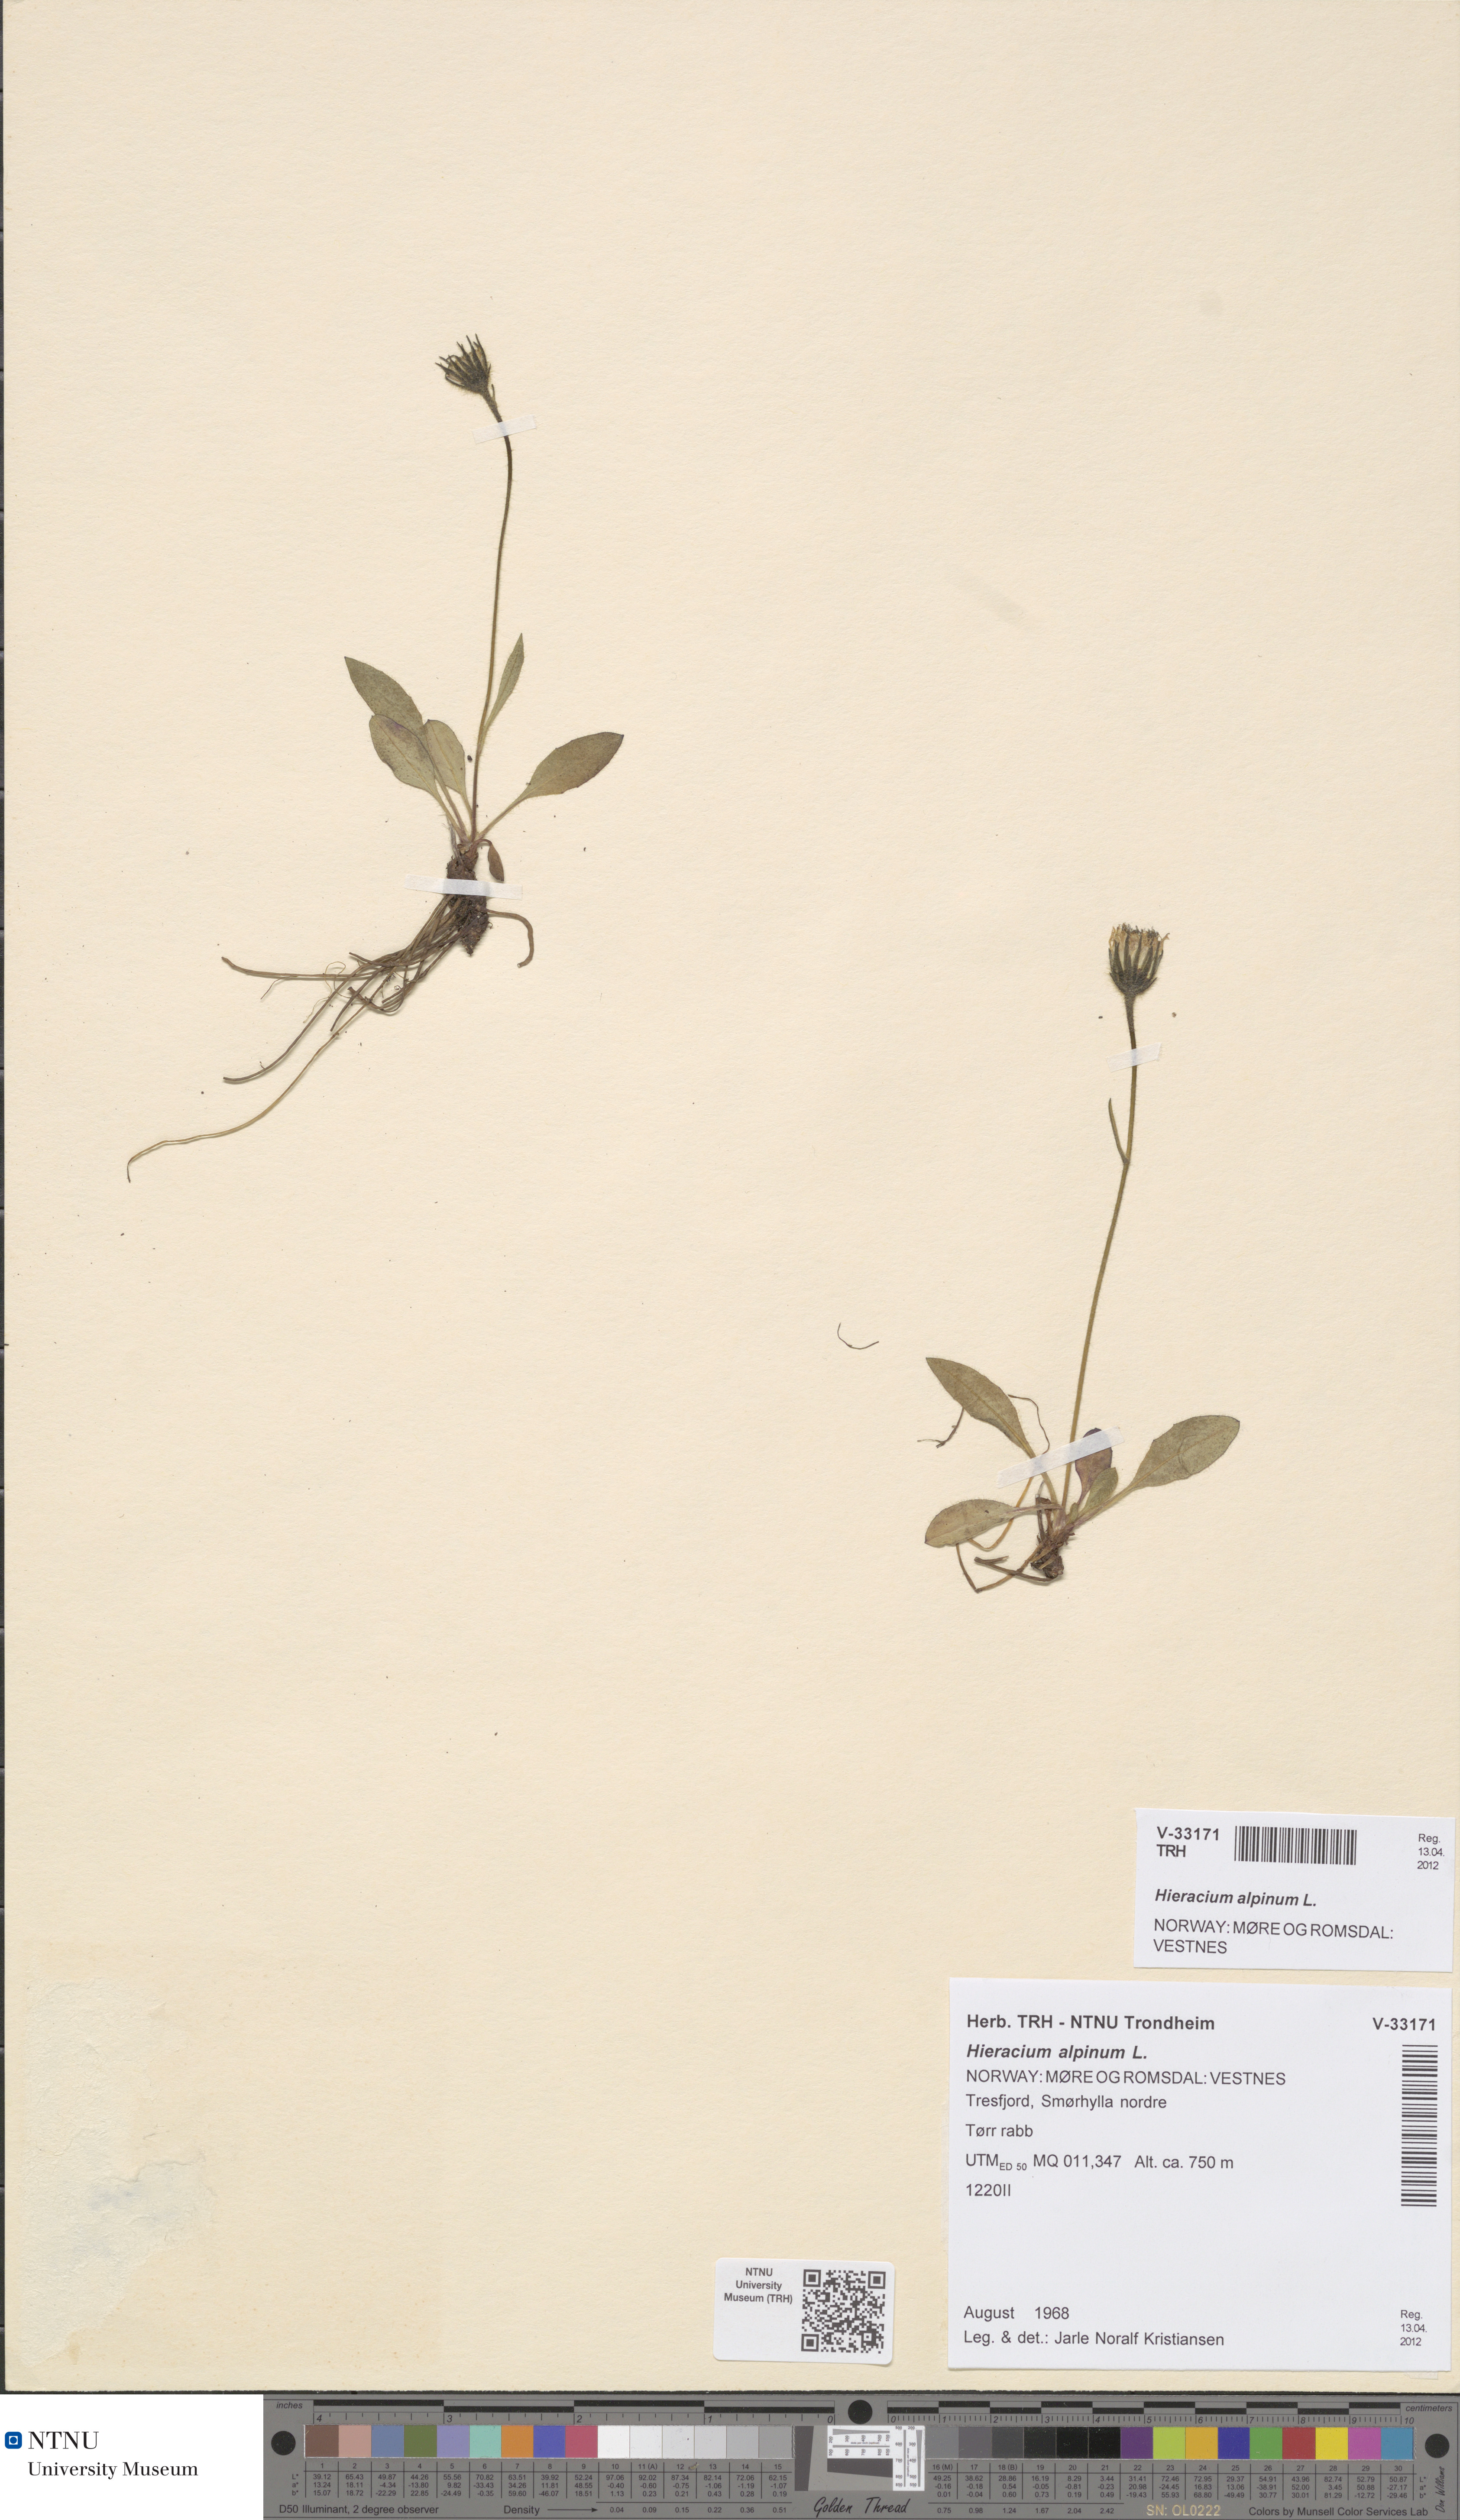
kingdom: Plantae
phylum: Tracheophyta
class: Magnoliopsida
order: Asterales
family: Asteraceae
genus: Hieracium
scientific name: Hieracium alpinum
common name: Alpine hawkweed
